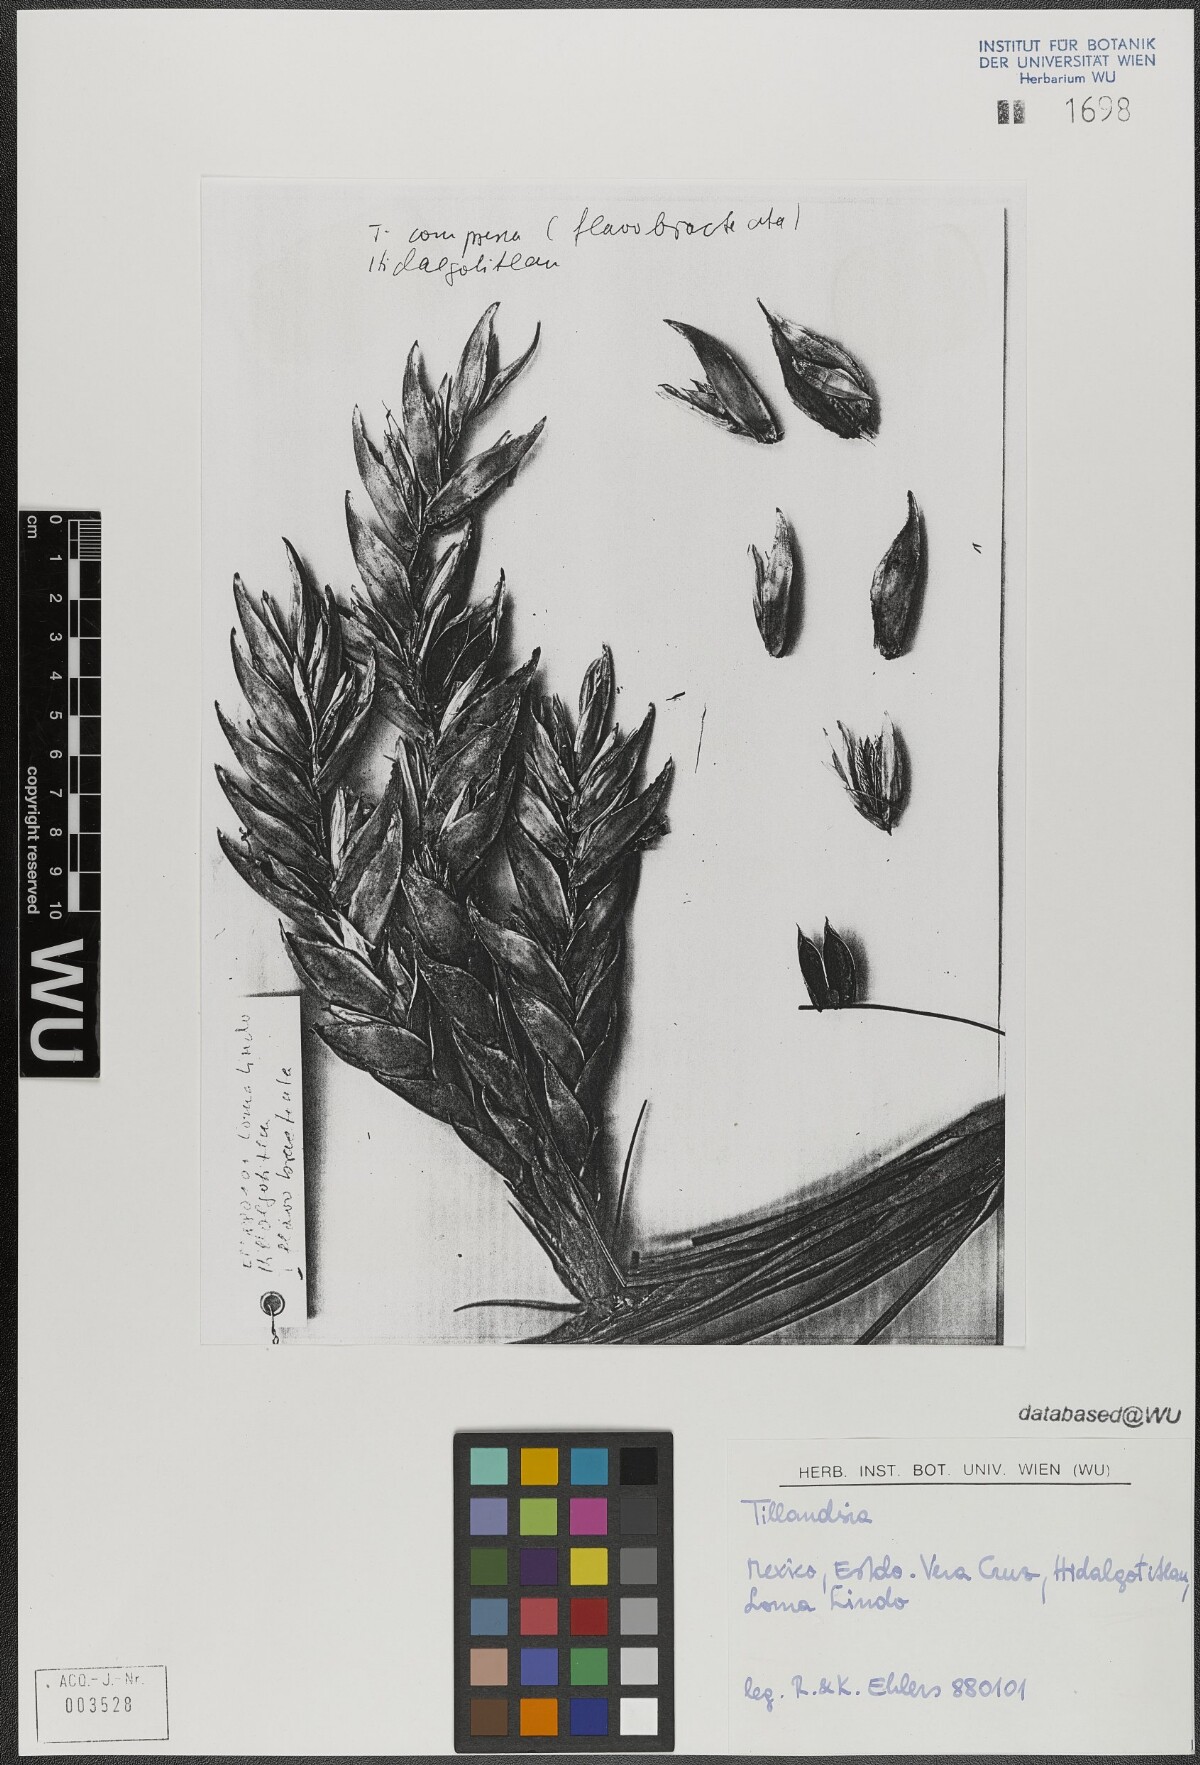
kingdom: Plantae
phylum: Tracheophyta
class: Liliopsida
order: Poales
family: Bromeliaceae
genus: Tillandsia
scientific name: Tillandsia fasciculata
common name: Giant airplant
